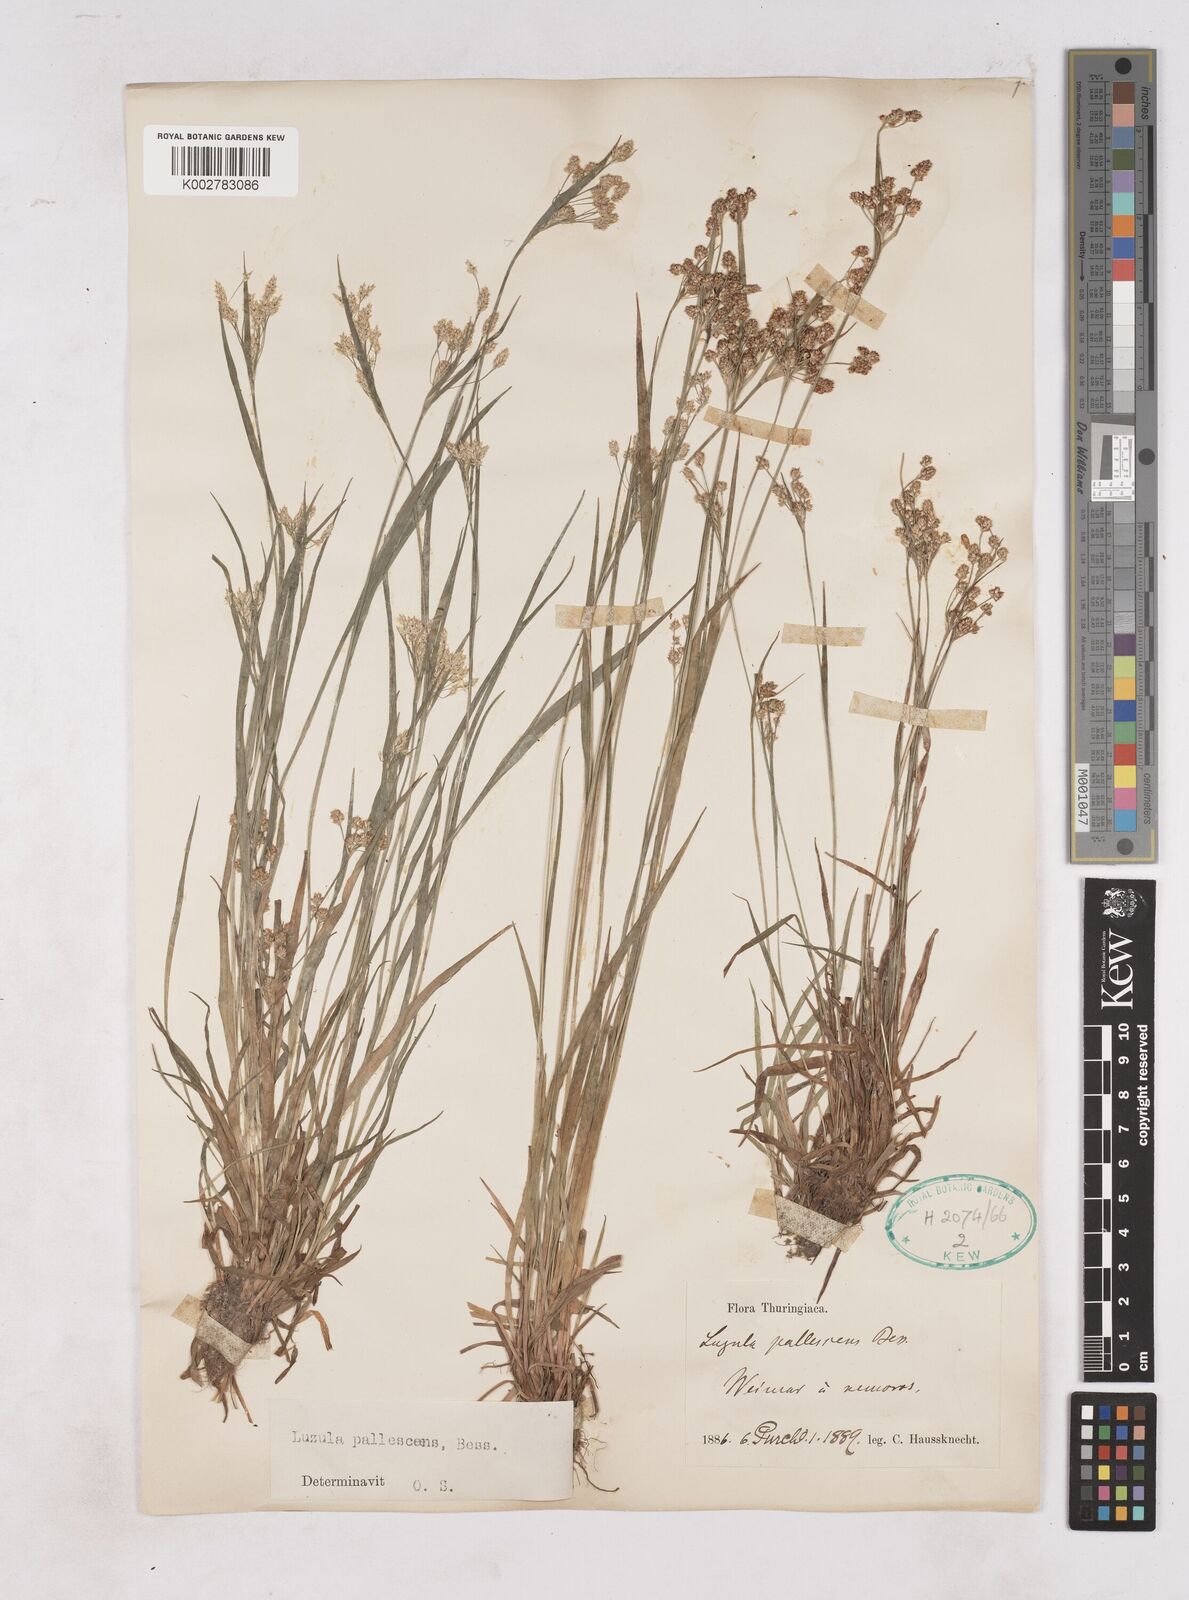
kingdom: Plantae
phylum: Tracheophyta
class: Liliopsida
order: Poales
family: Juncaceae
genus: Luzula
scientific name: Luzula pallescens
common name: Fen wood-rush
